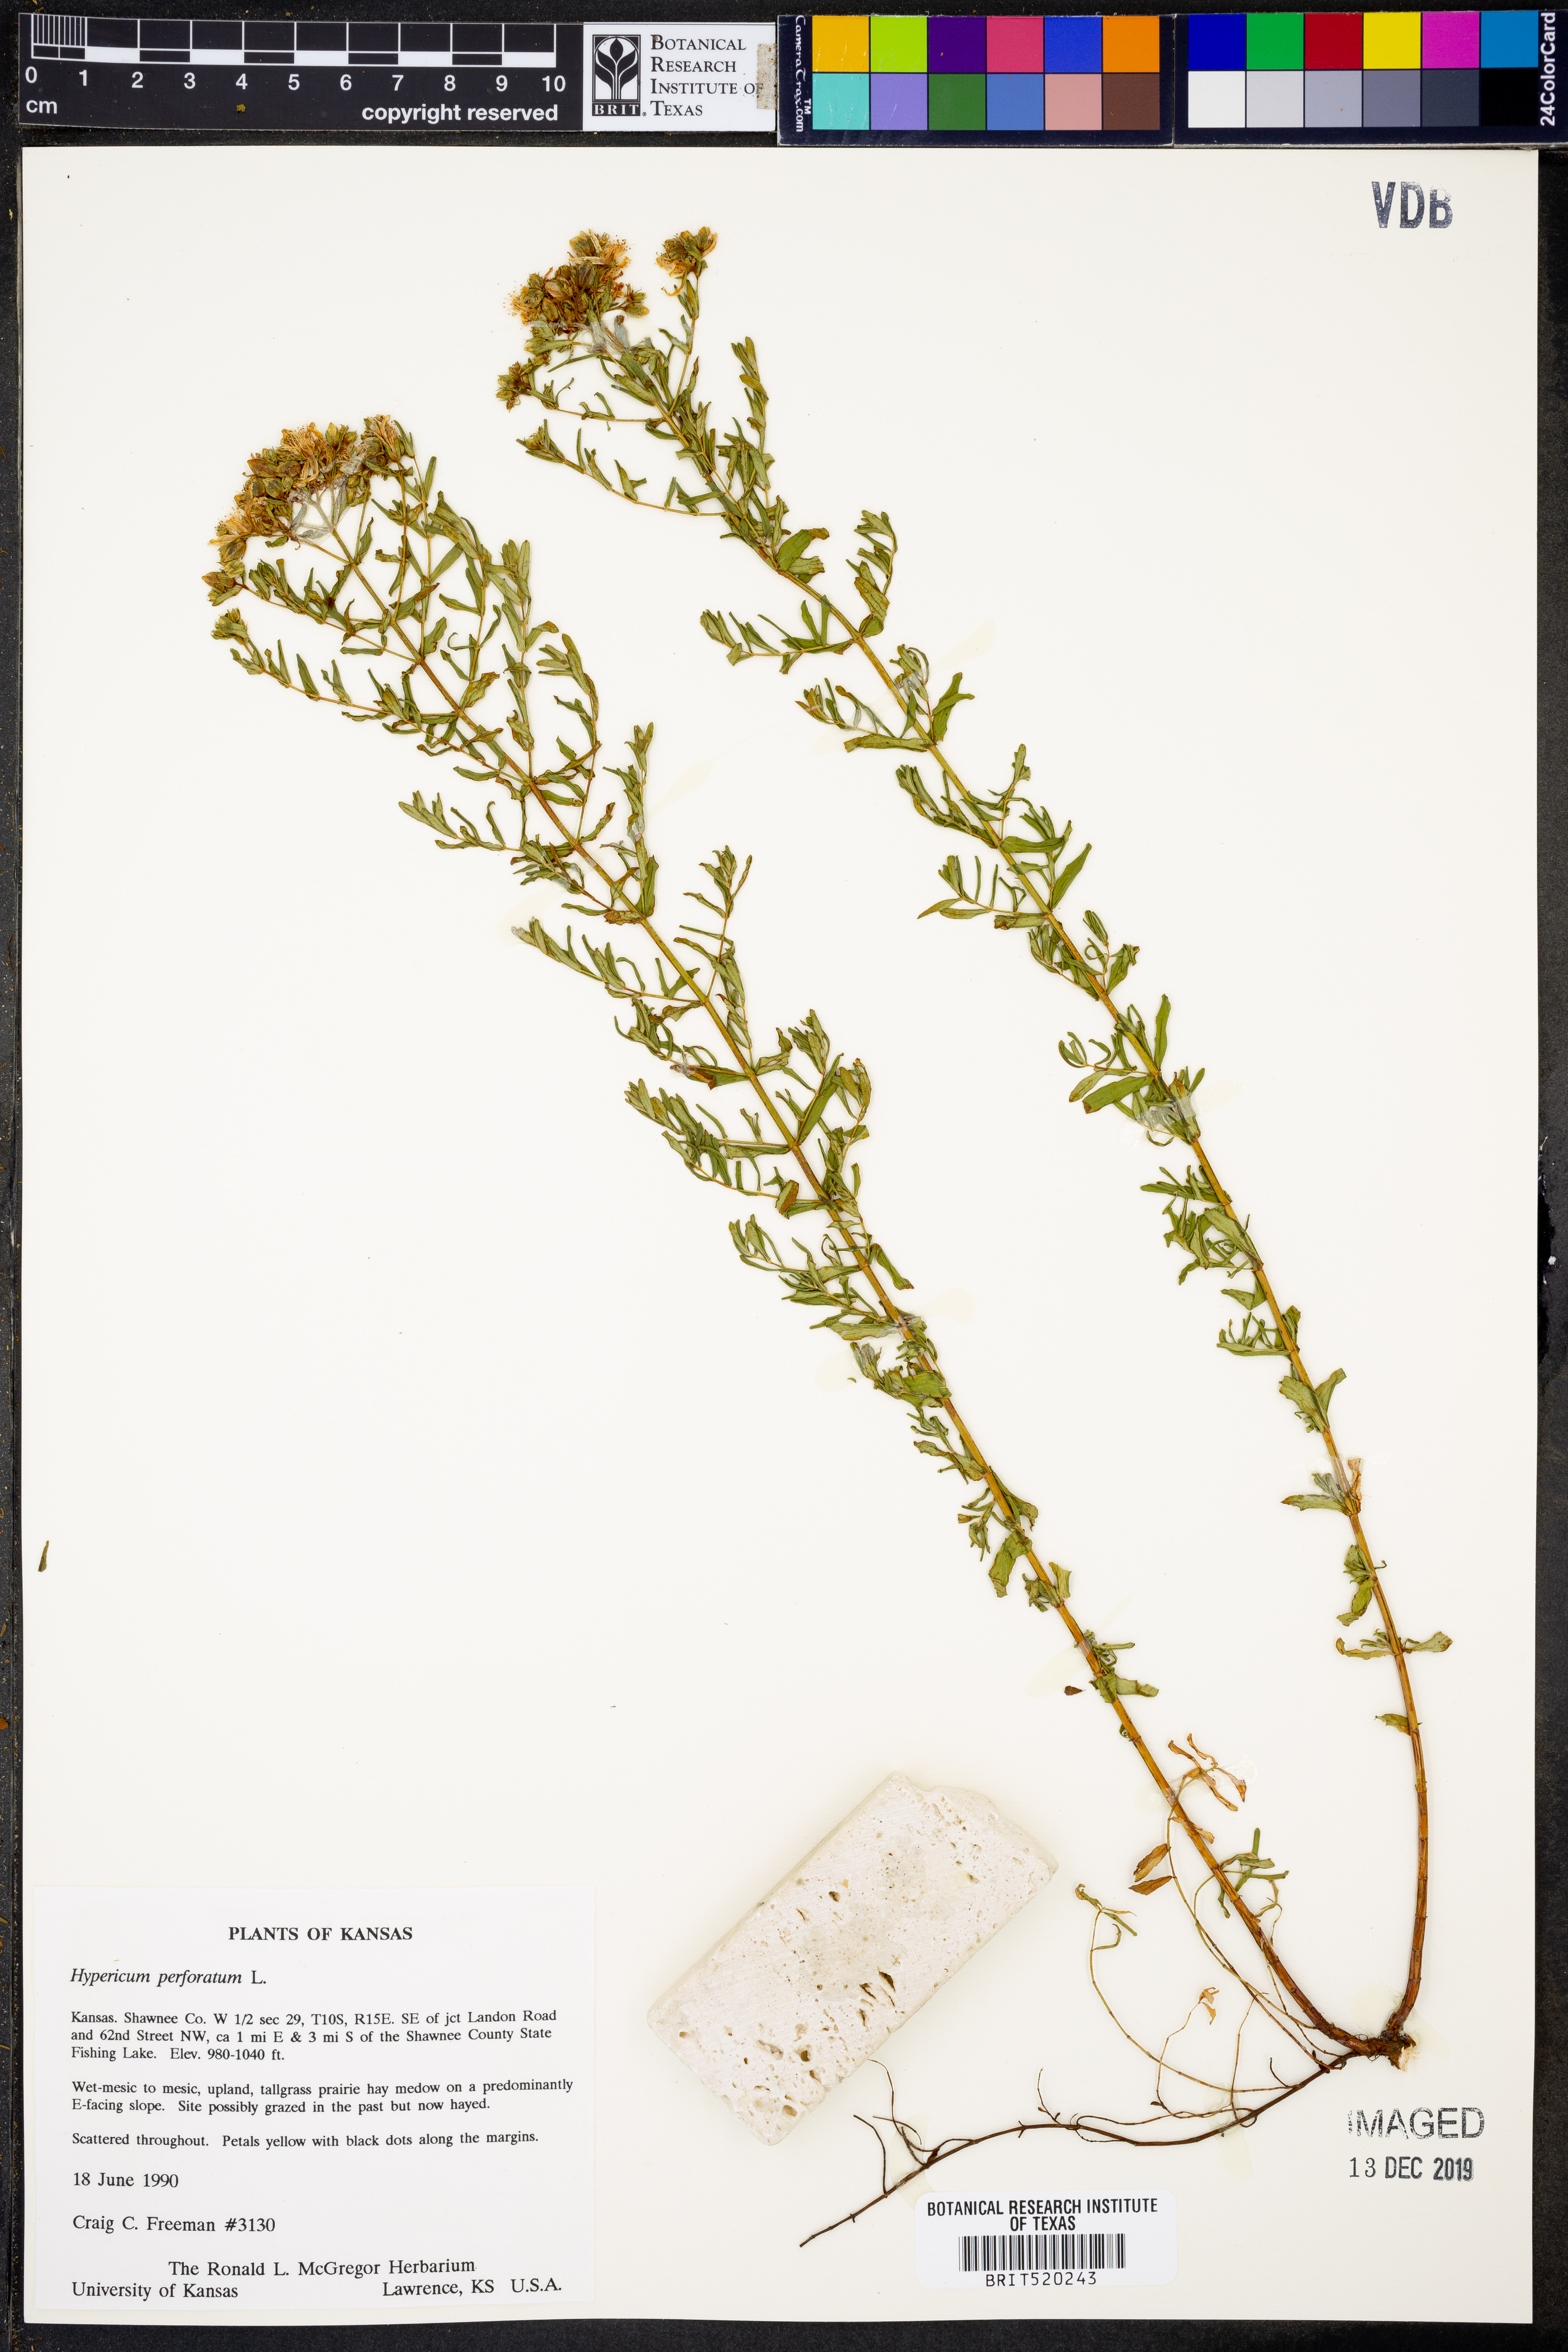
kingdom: Plantae
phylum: Tracheophyta
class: Magnoliopsida
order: Malpighiales
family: Hypericaceae
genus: Hypericum
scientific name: Hypericum perforatum
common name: Common st. johnswort
